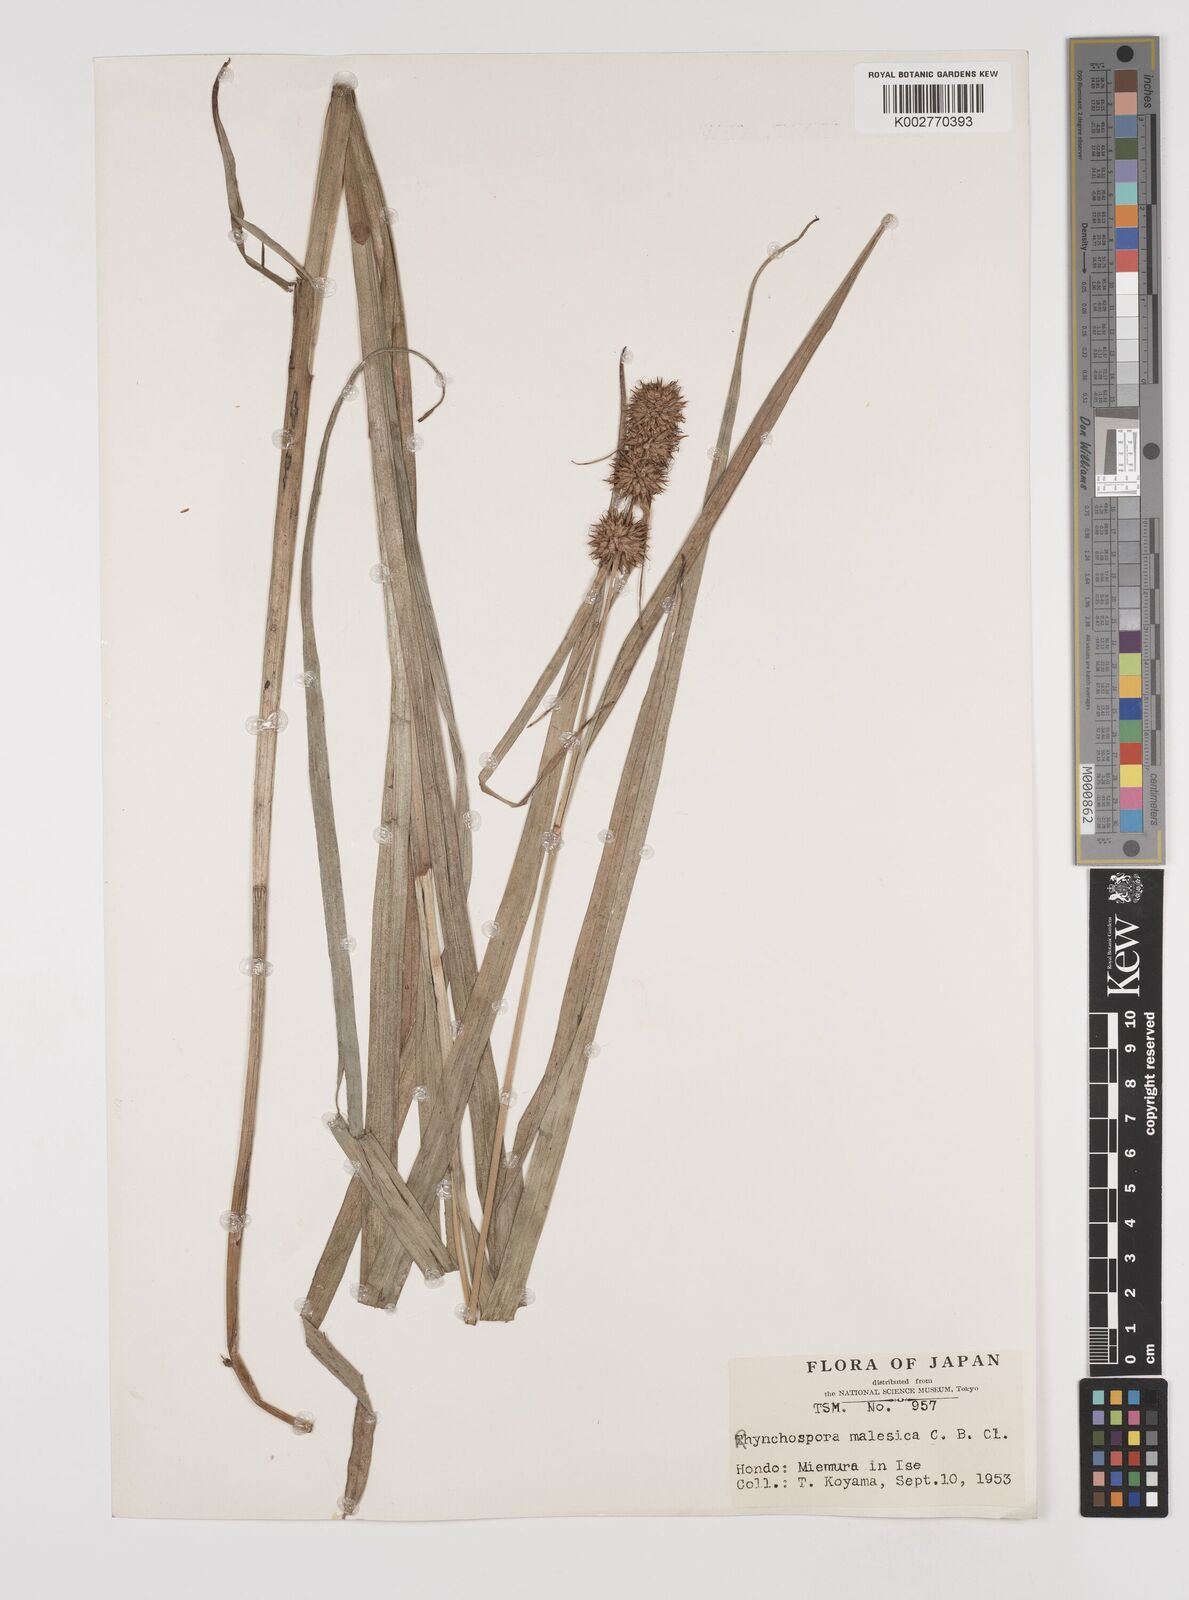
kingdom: Plantae
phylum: Tracheophyta
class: Liliopsida
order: Poales
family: Cyperaceae
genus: Rhynchospora
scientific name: Rhynchospora malasica
